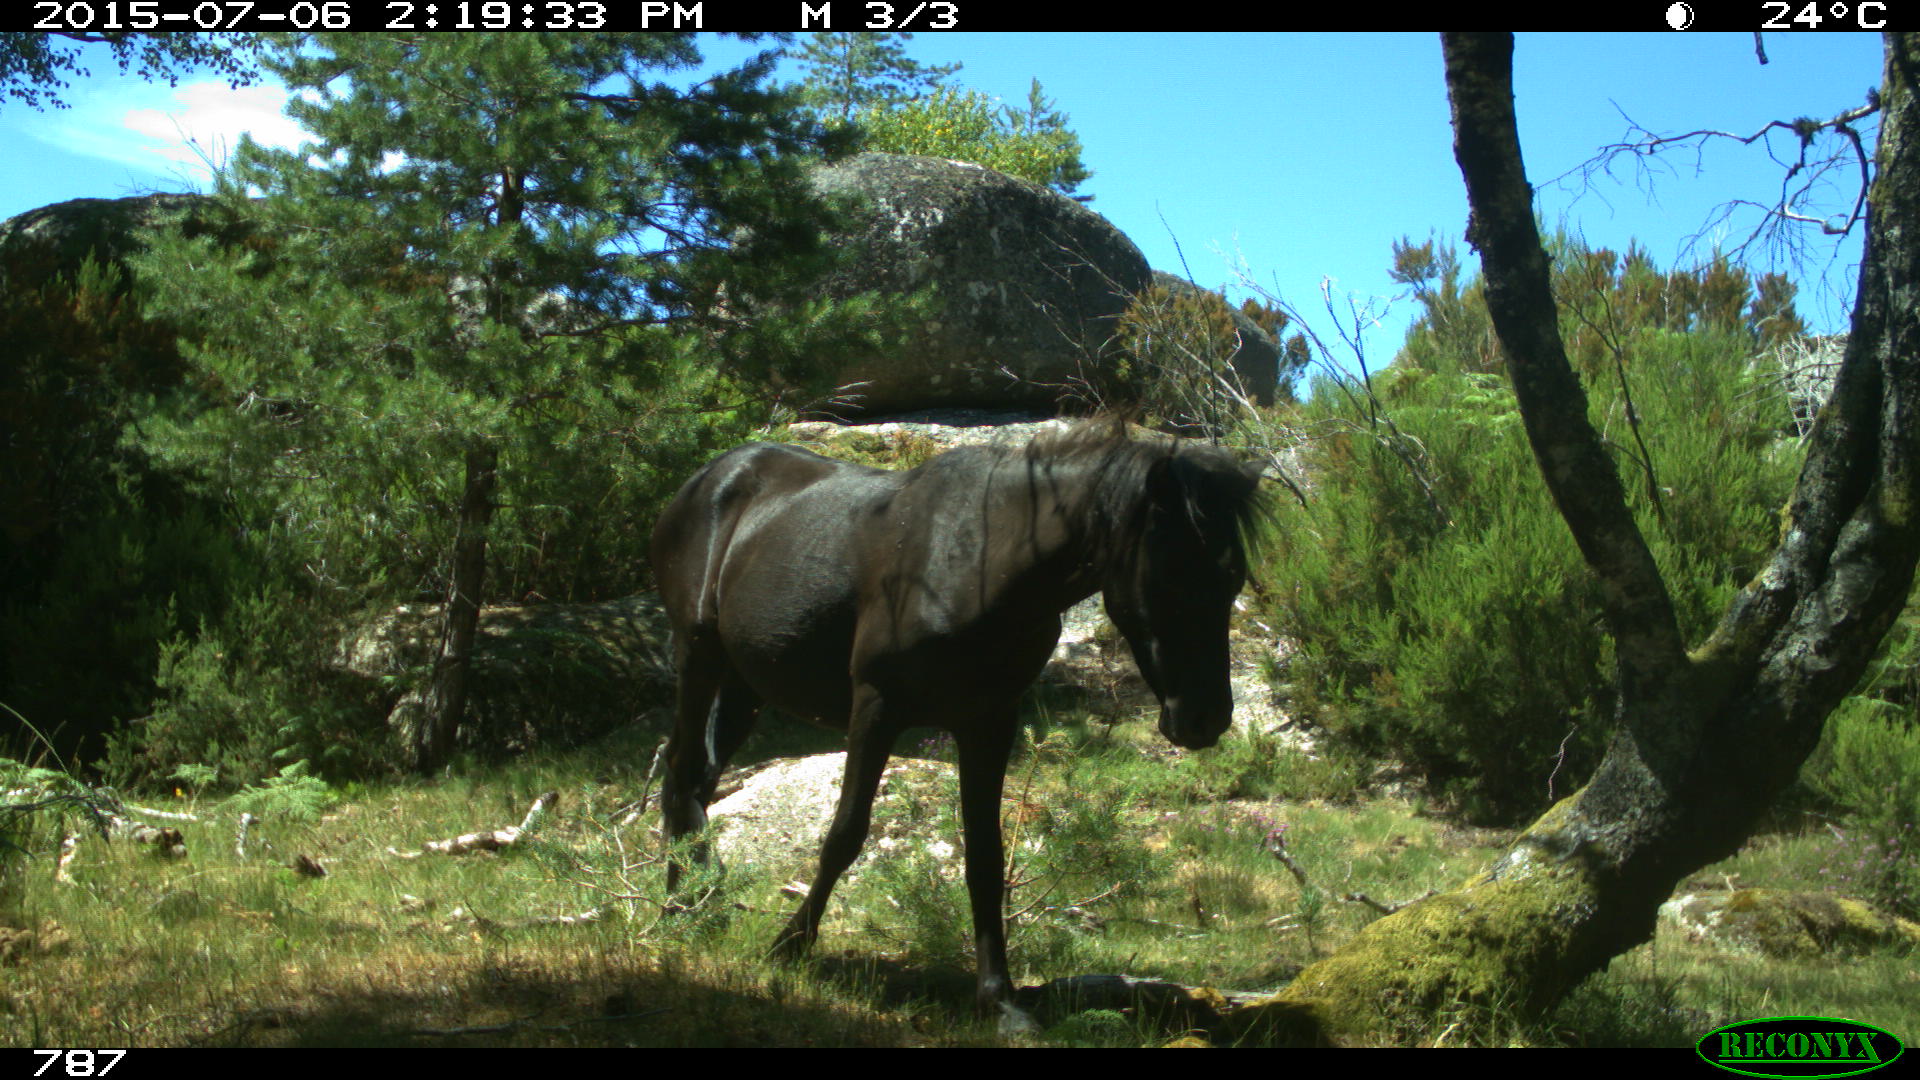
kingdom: Animalia
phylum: Chordata
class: Mammalia
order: Perissodactyla
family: Equidae
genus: Equus
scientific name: Equus caballus
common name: Horse
